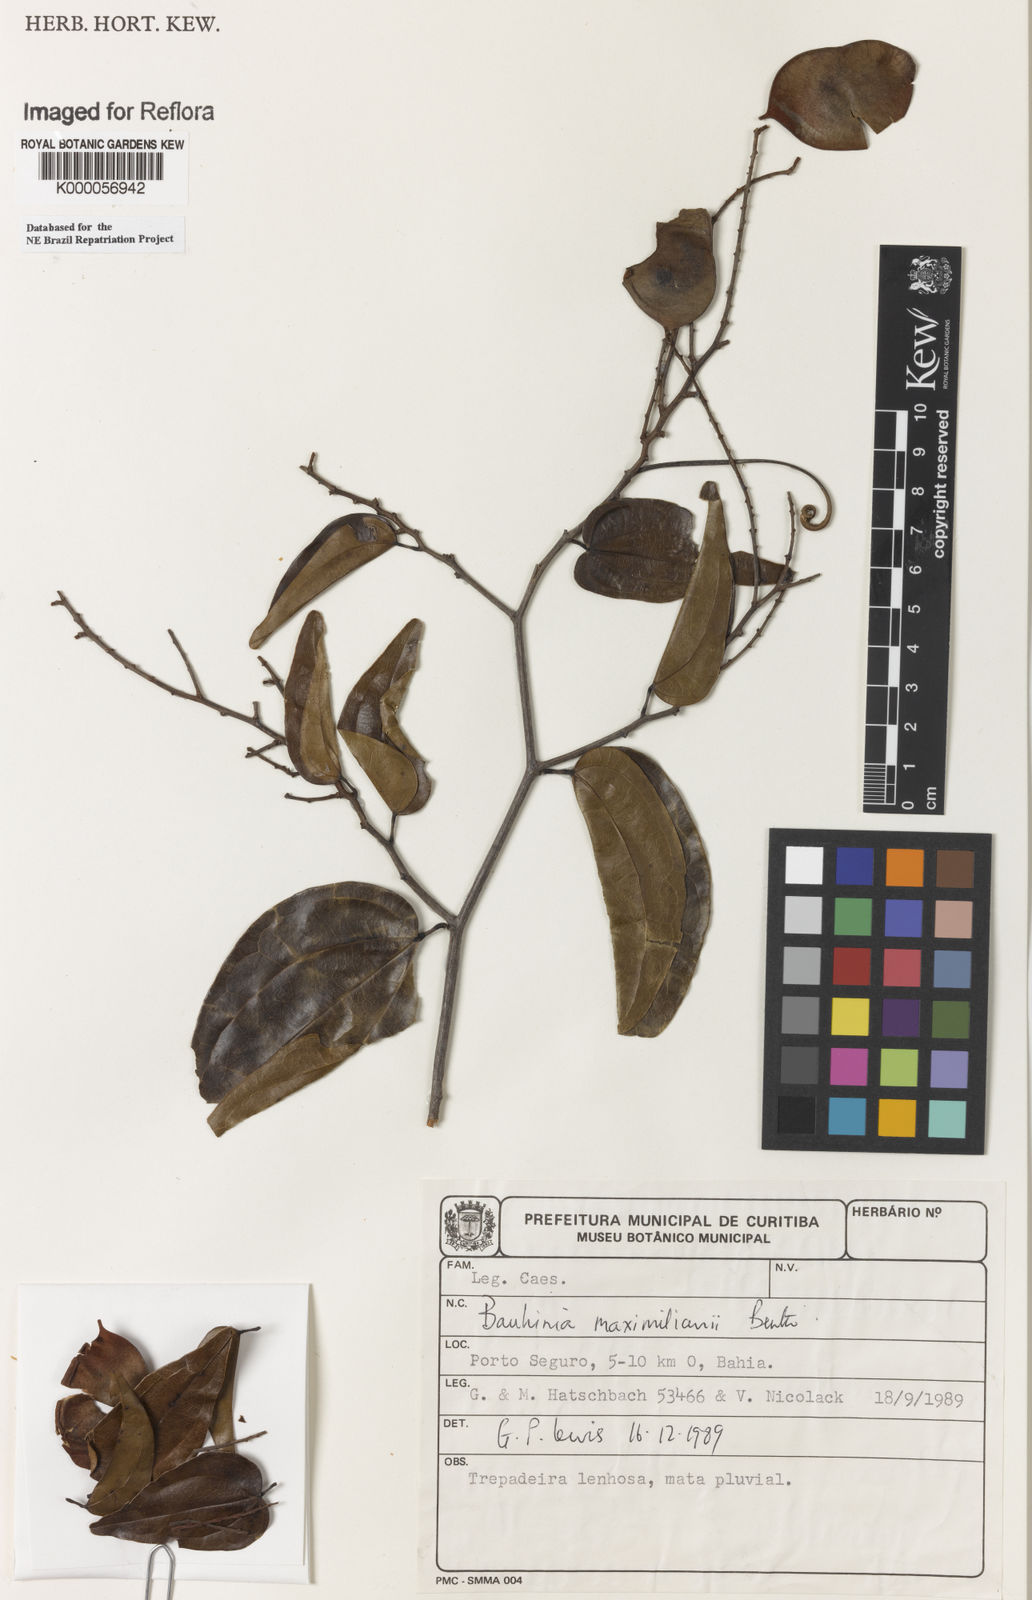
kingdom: Plantae
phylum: Tracheophyta
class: Magnoliopsida
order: Fabales
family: Fabaceae
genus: Schnella
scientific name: Schnella maximiliani
